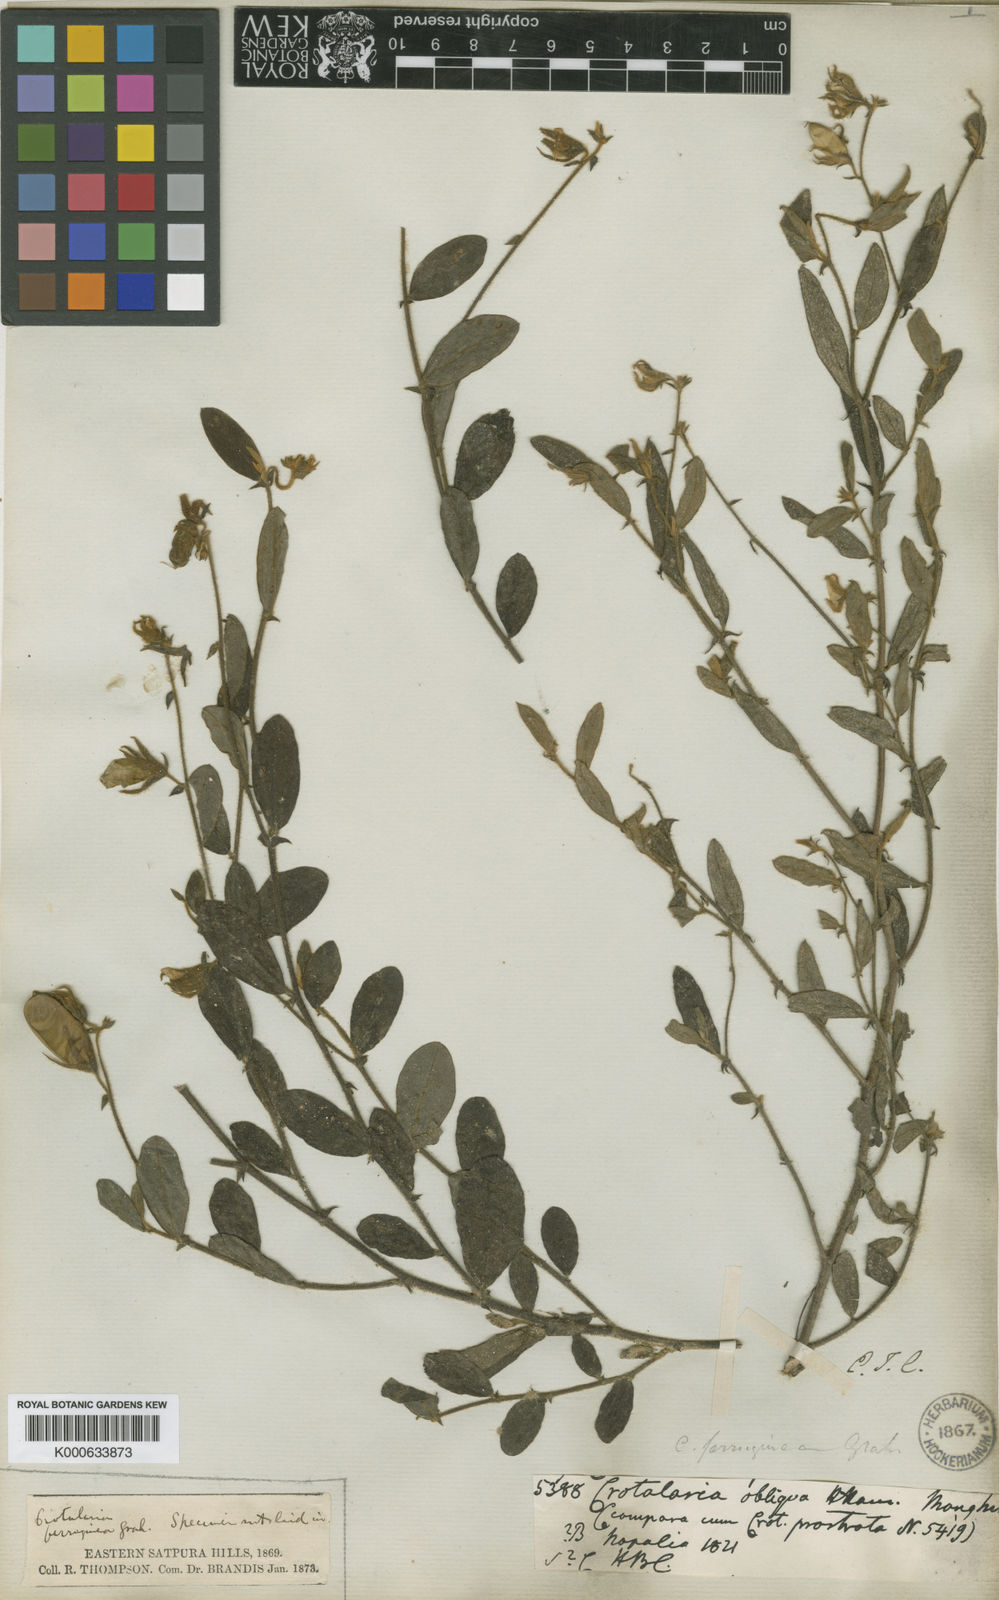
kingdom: Plantae
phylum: Tracheophyta
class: Magnoliopsida
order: Fabales
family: Fabaceae
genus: Crotalaria
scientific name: Crotalaria lejoloba
